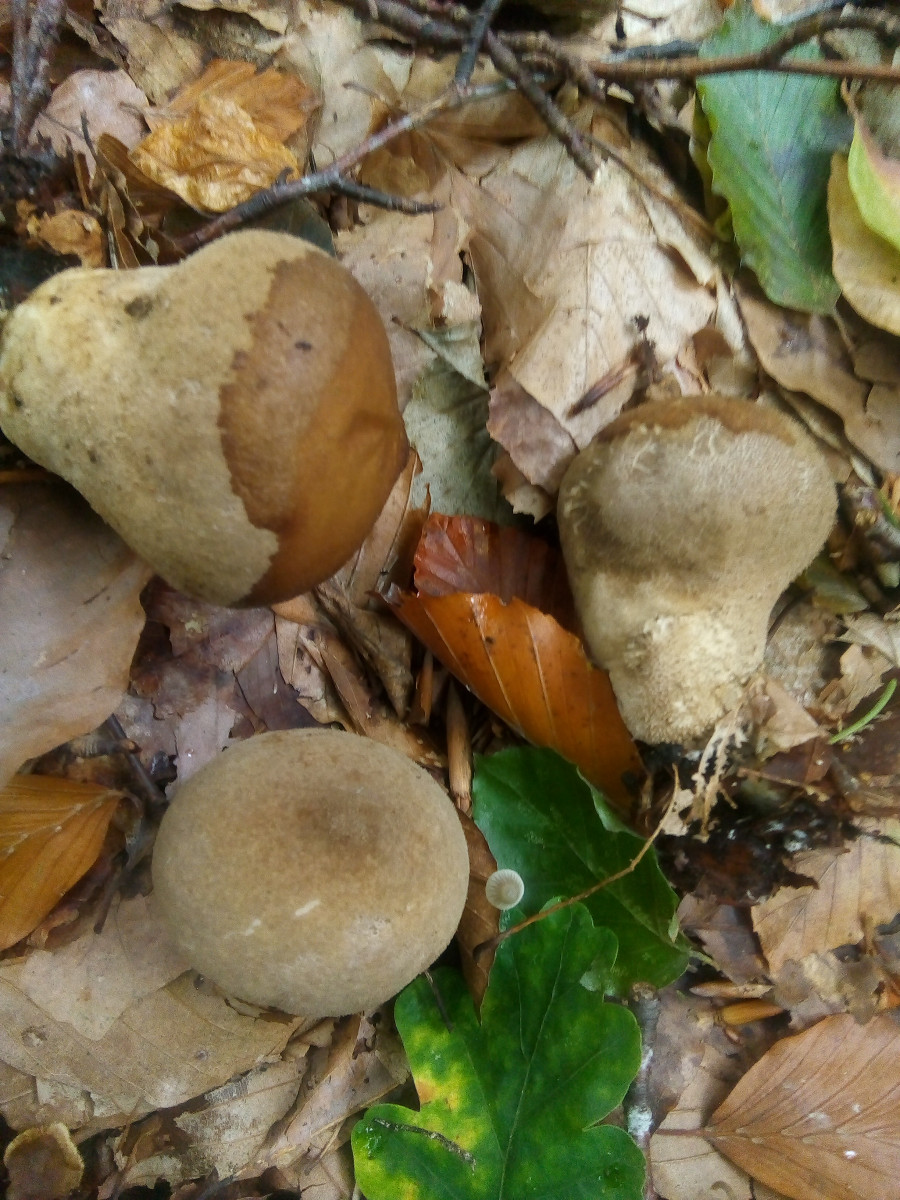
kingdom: Fungi
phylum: Basidiomycota
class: Agaricomycetes
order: Agaricales
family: Lycoperdaceae
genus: Lycoperdon
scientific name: Lycoperdon molle
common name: skov-støvbold
